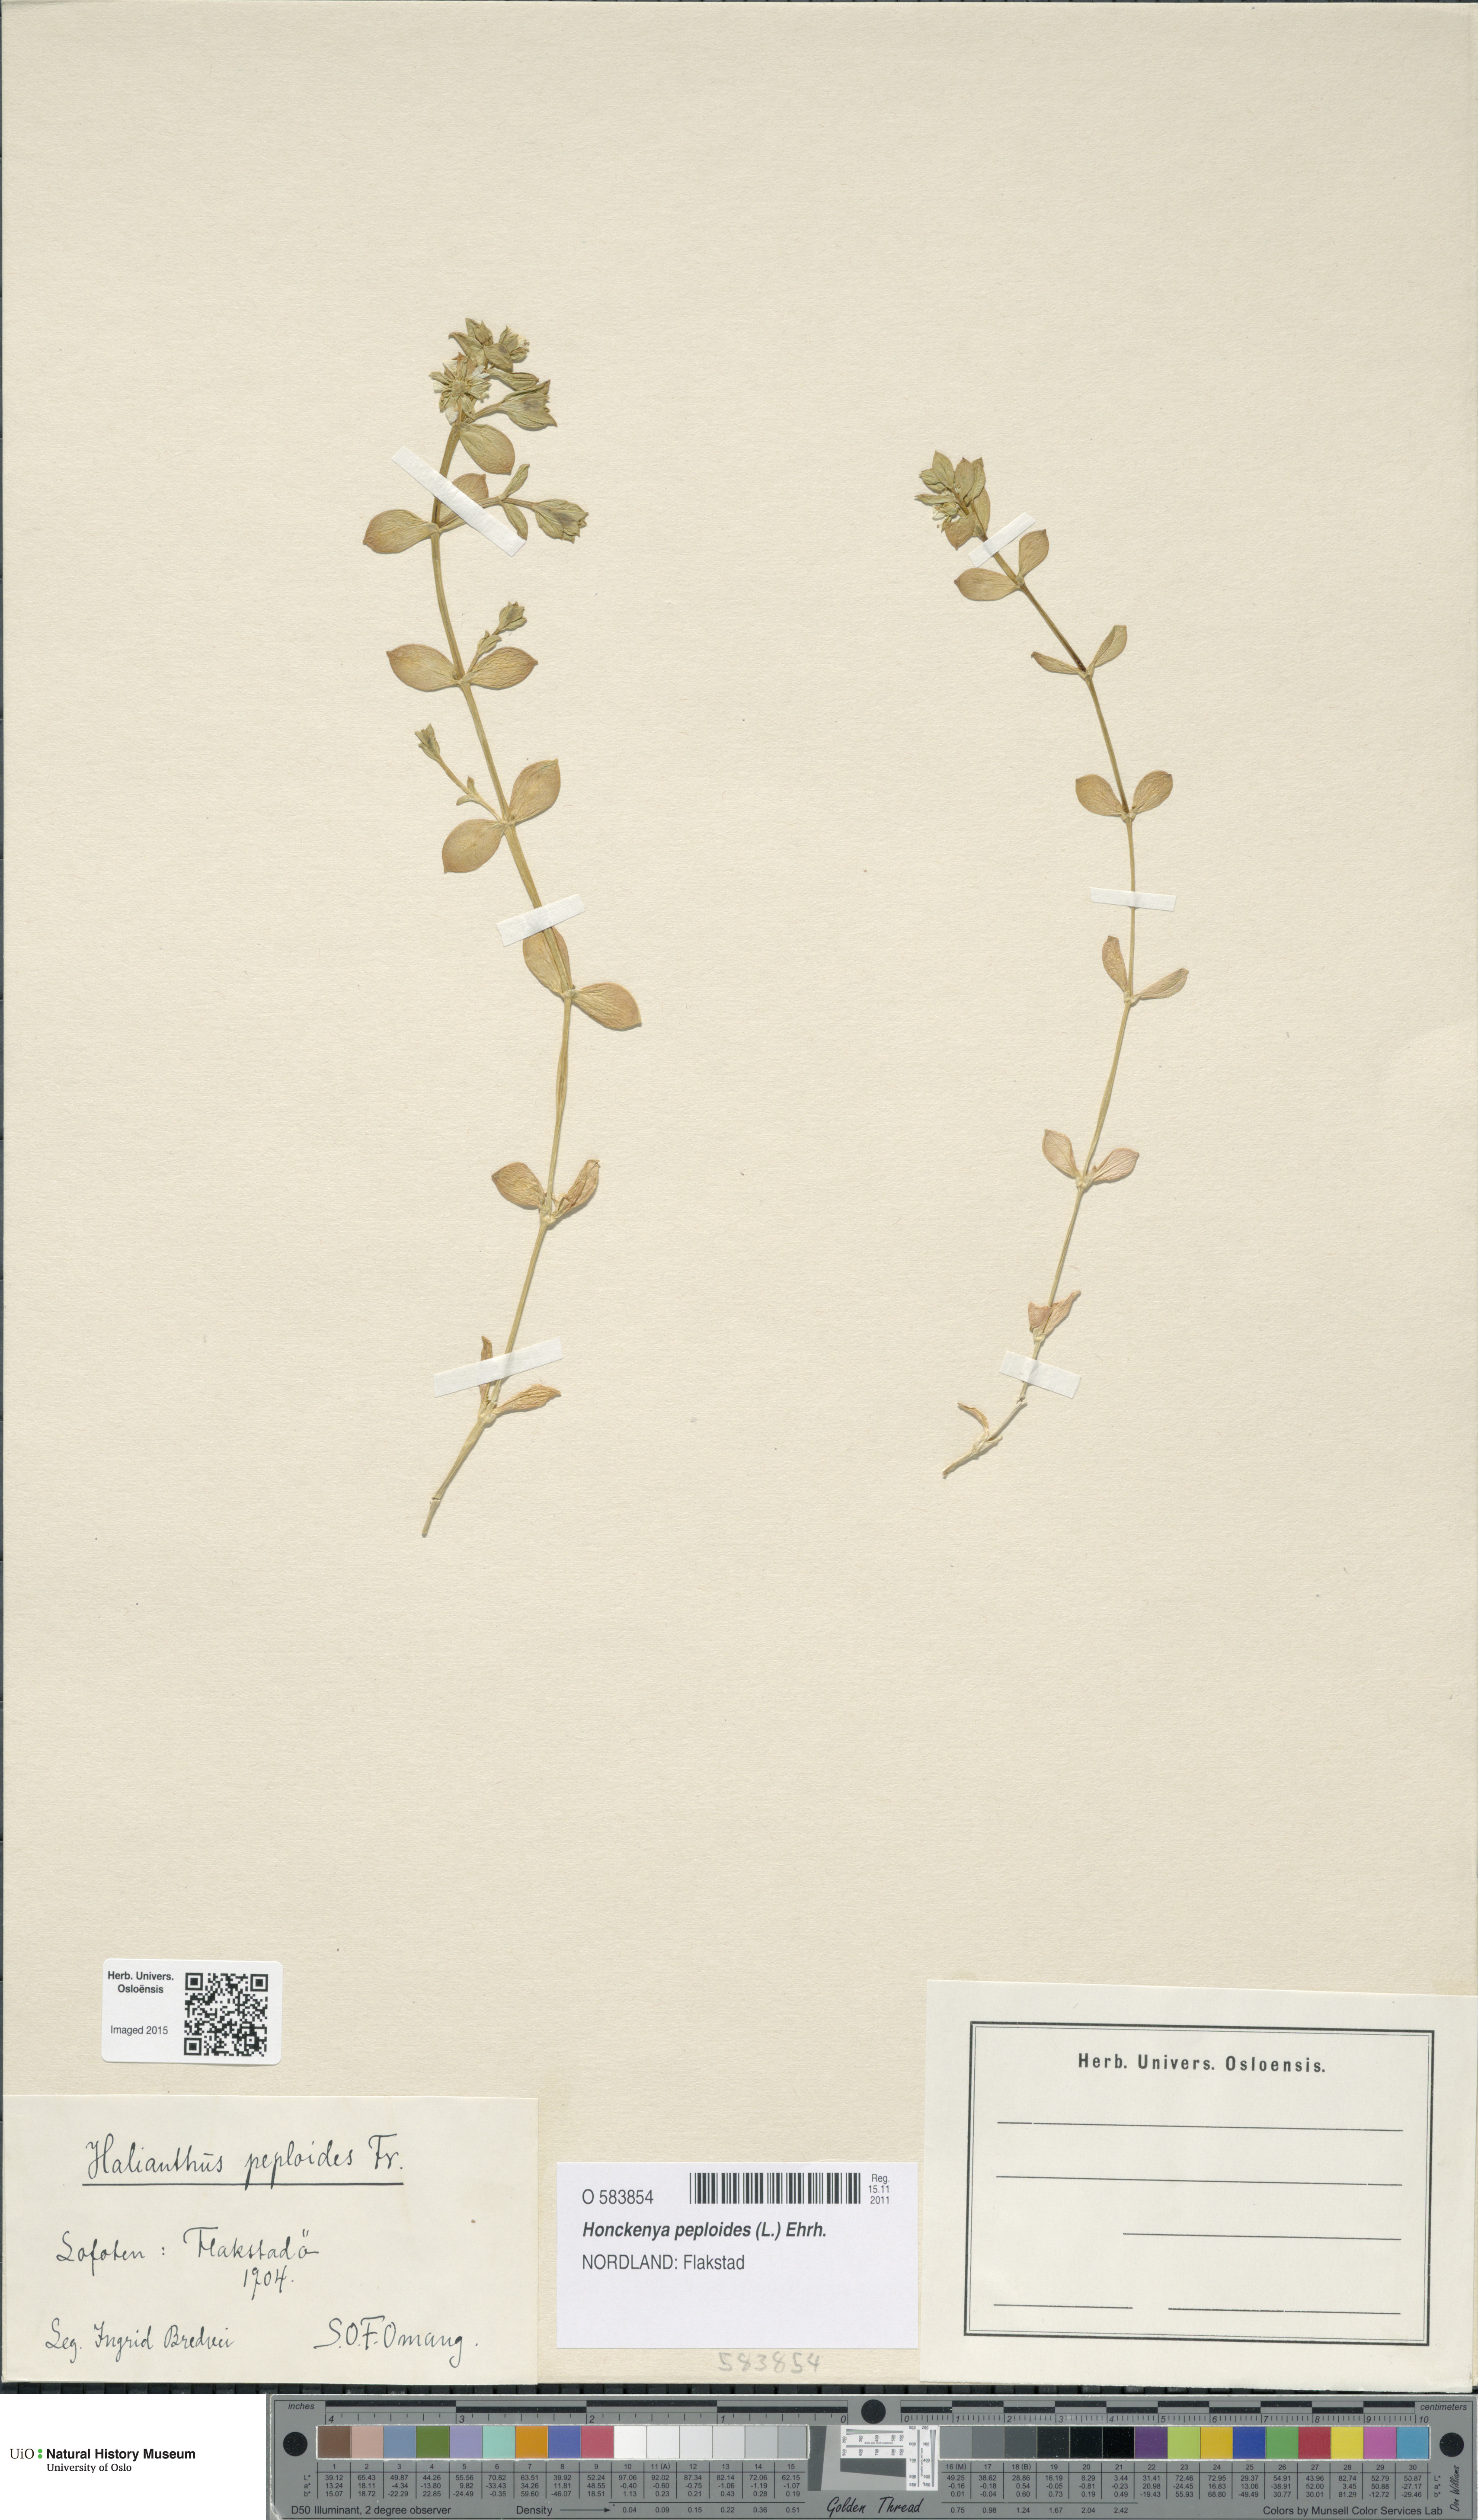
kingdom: Plantae
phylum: Tracheophyta
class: Magnoliopsida
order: Caryophyllales
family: Caryophyllaceae
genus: Honckenya
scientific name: Honckenya peploides
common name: Sea sandwort
